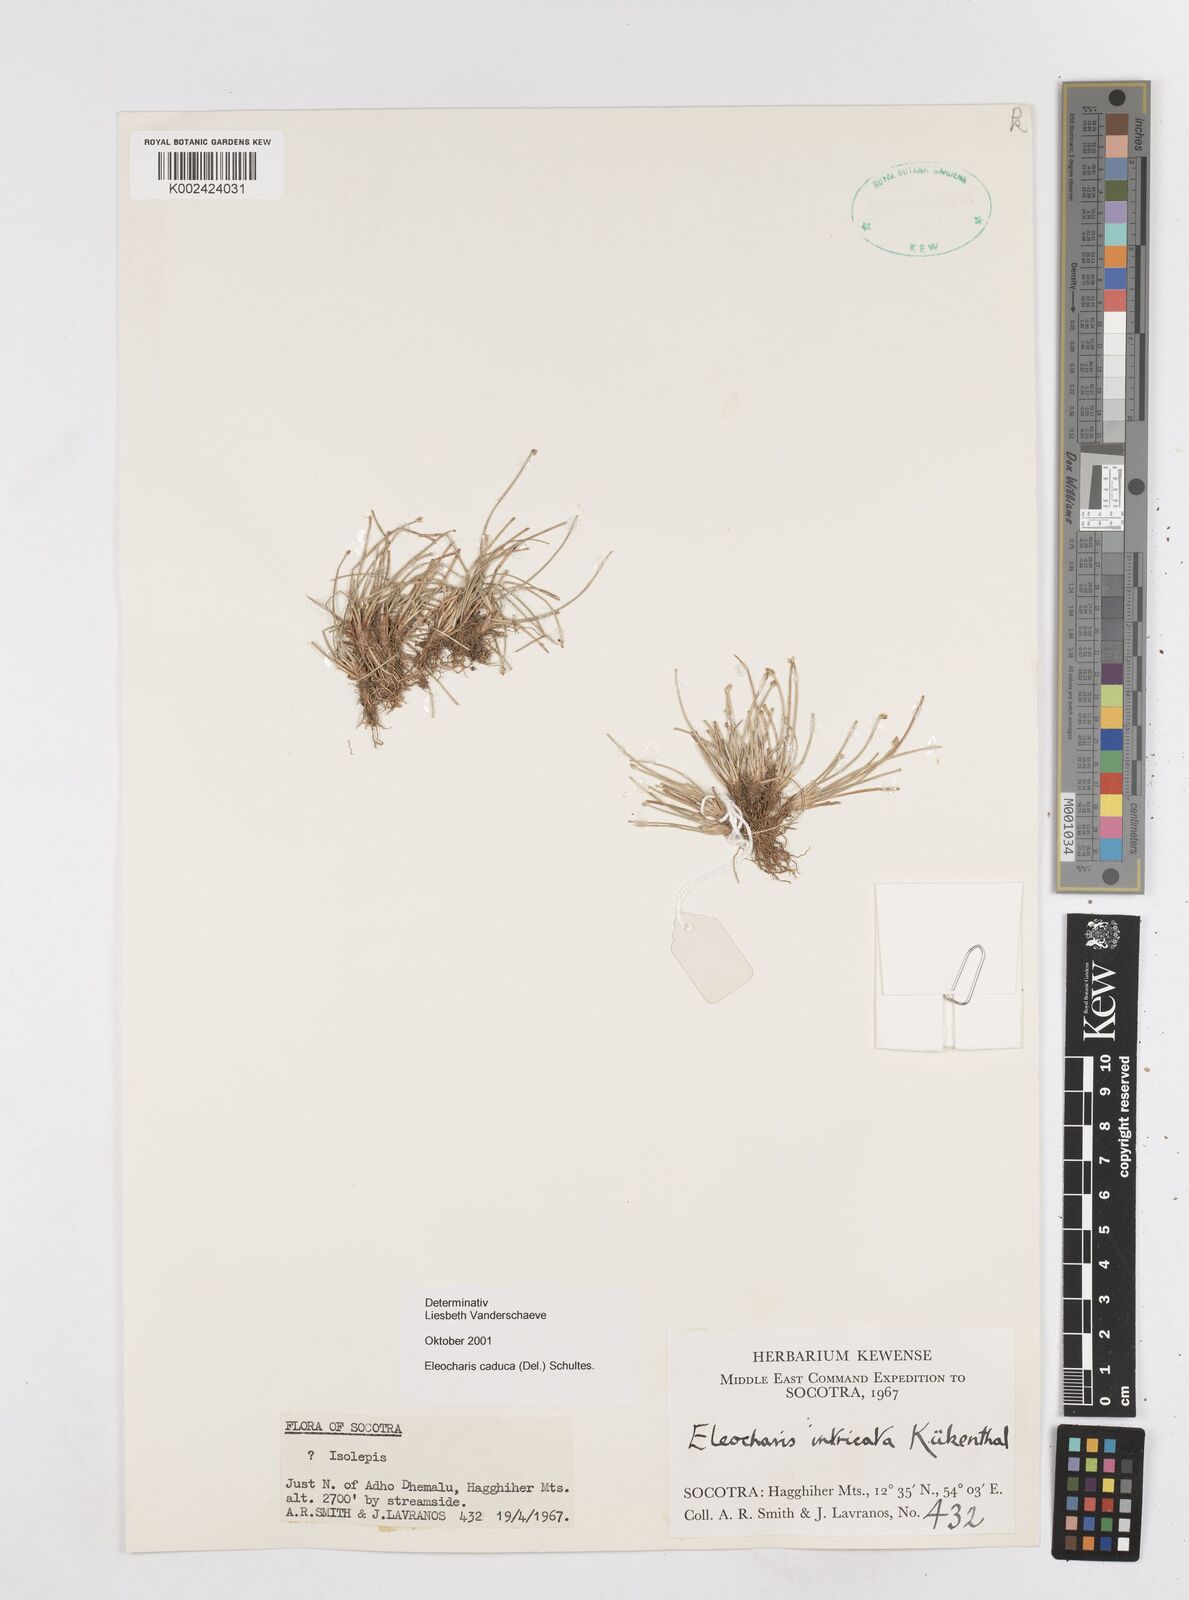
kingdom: Plantae
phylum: Tracheophyta
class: Liliopsida
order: Poales
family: Cyperaceae
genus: Eleocharis
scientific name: Eleocharis caduca
